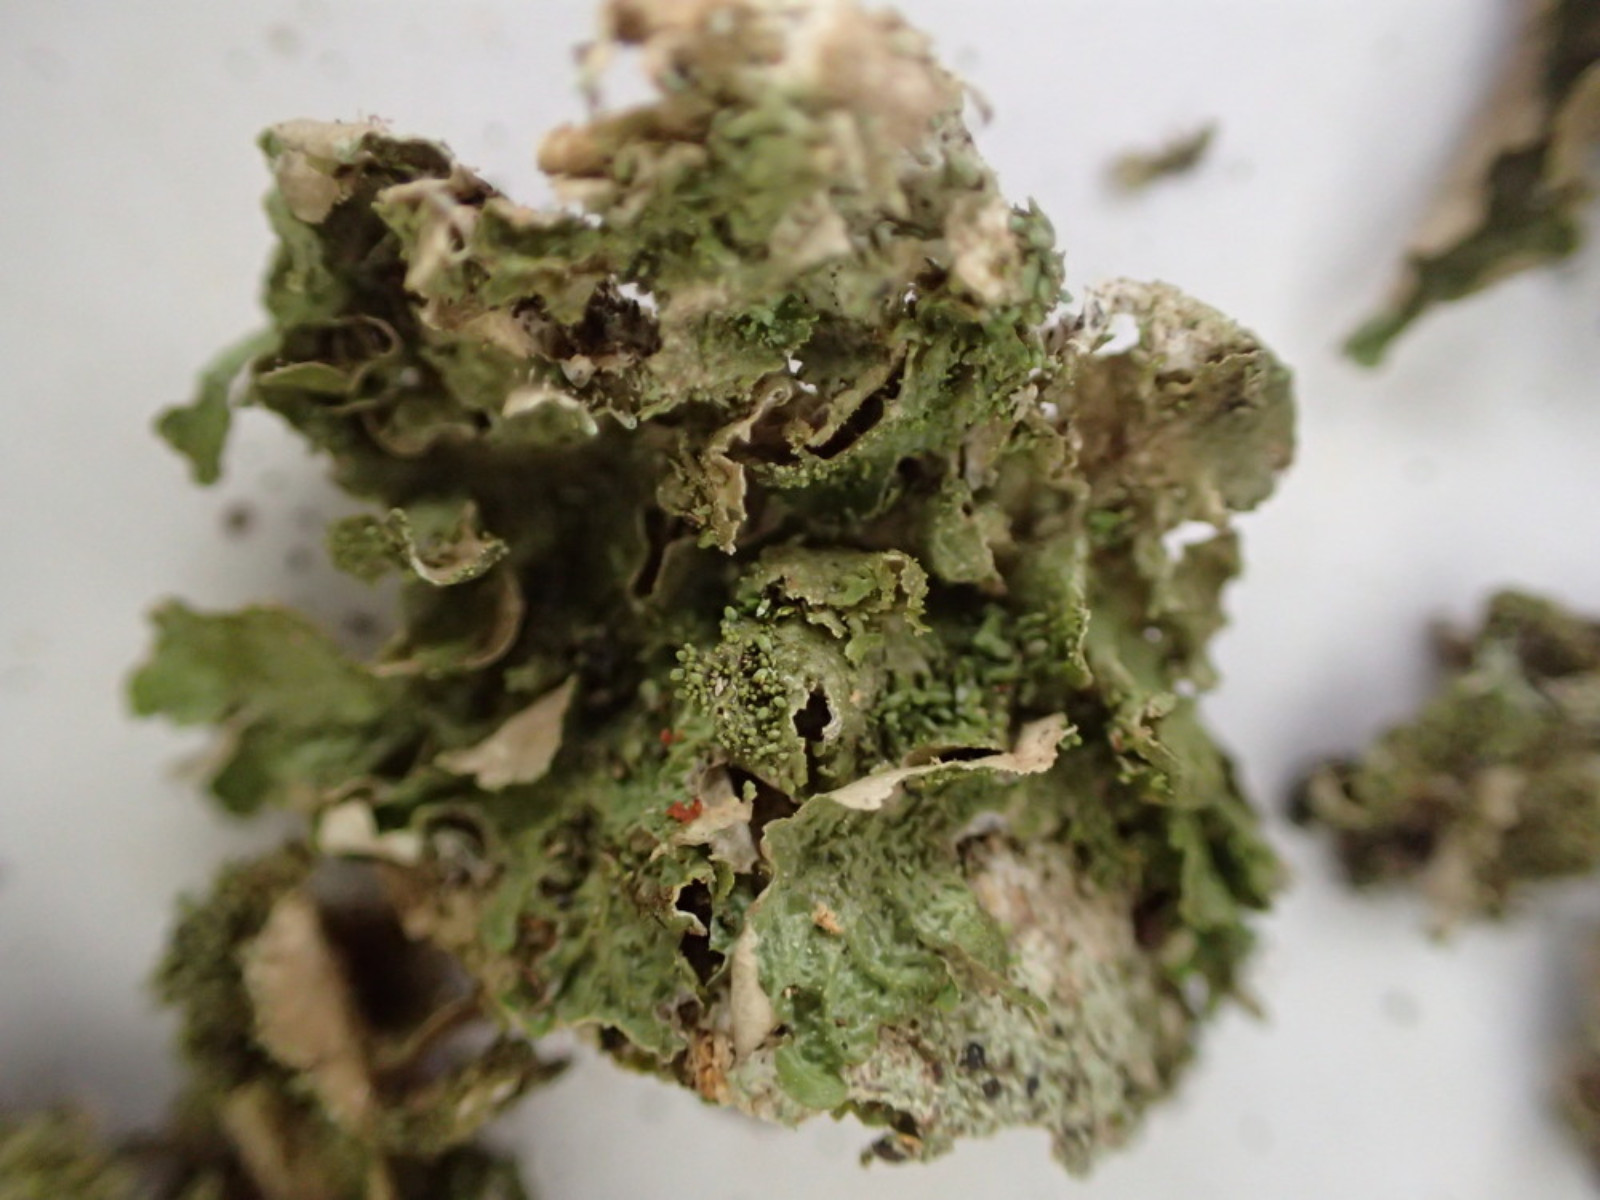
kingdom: Fungi
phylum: Ascomycota
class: Lecanoromycetes
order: Lecanorales
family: Parmeliaceae
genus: Melanohalea
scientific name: Melanohalea exasperatula
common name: kølle-skållav
